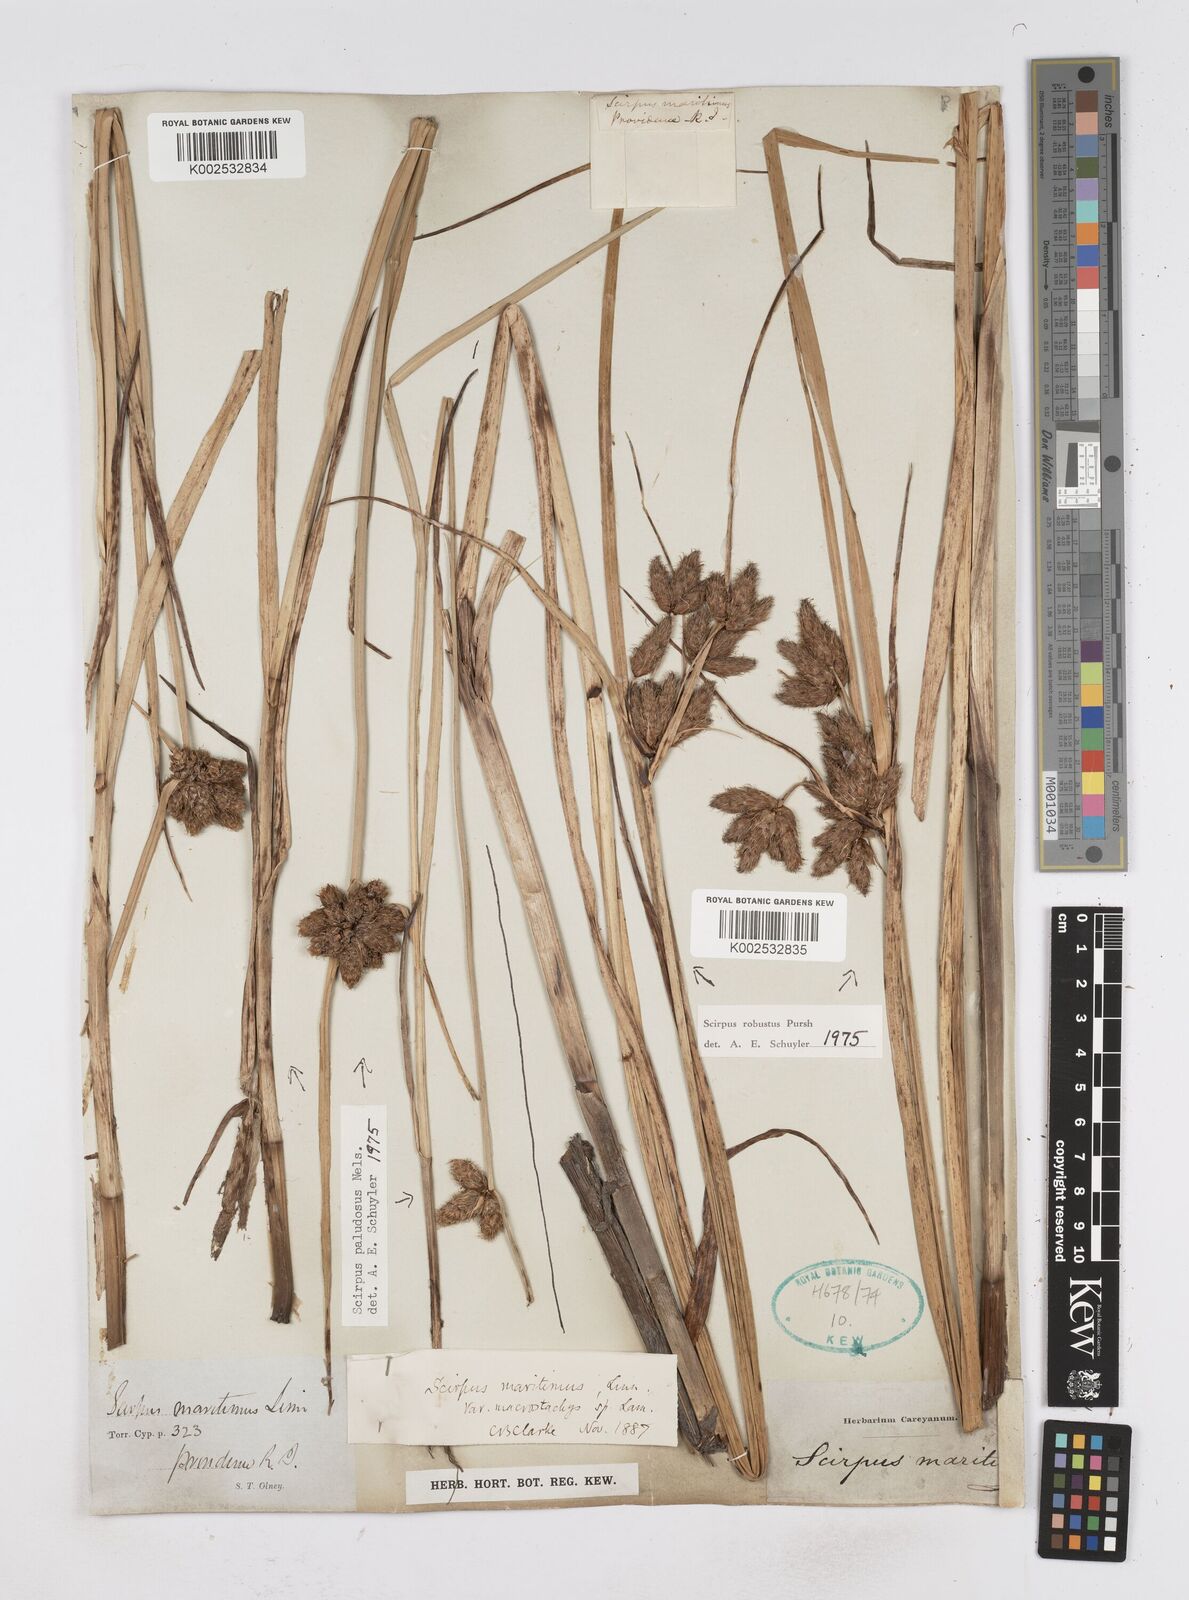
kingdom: Plantae
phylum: Tracheophyta
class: Liliopsida
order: Poales
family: Cyperaceae
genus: Bolboschoenus
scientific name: Bolboschoenus maritimus
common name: Sea club-rush
